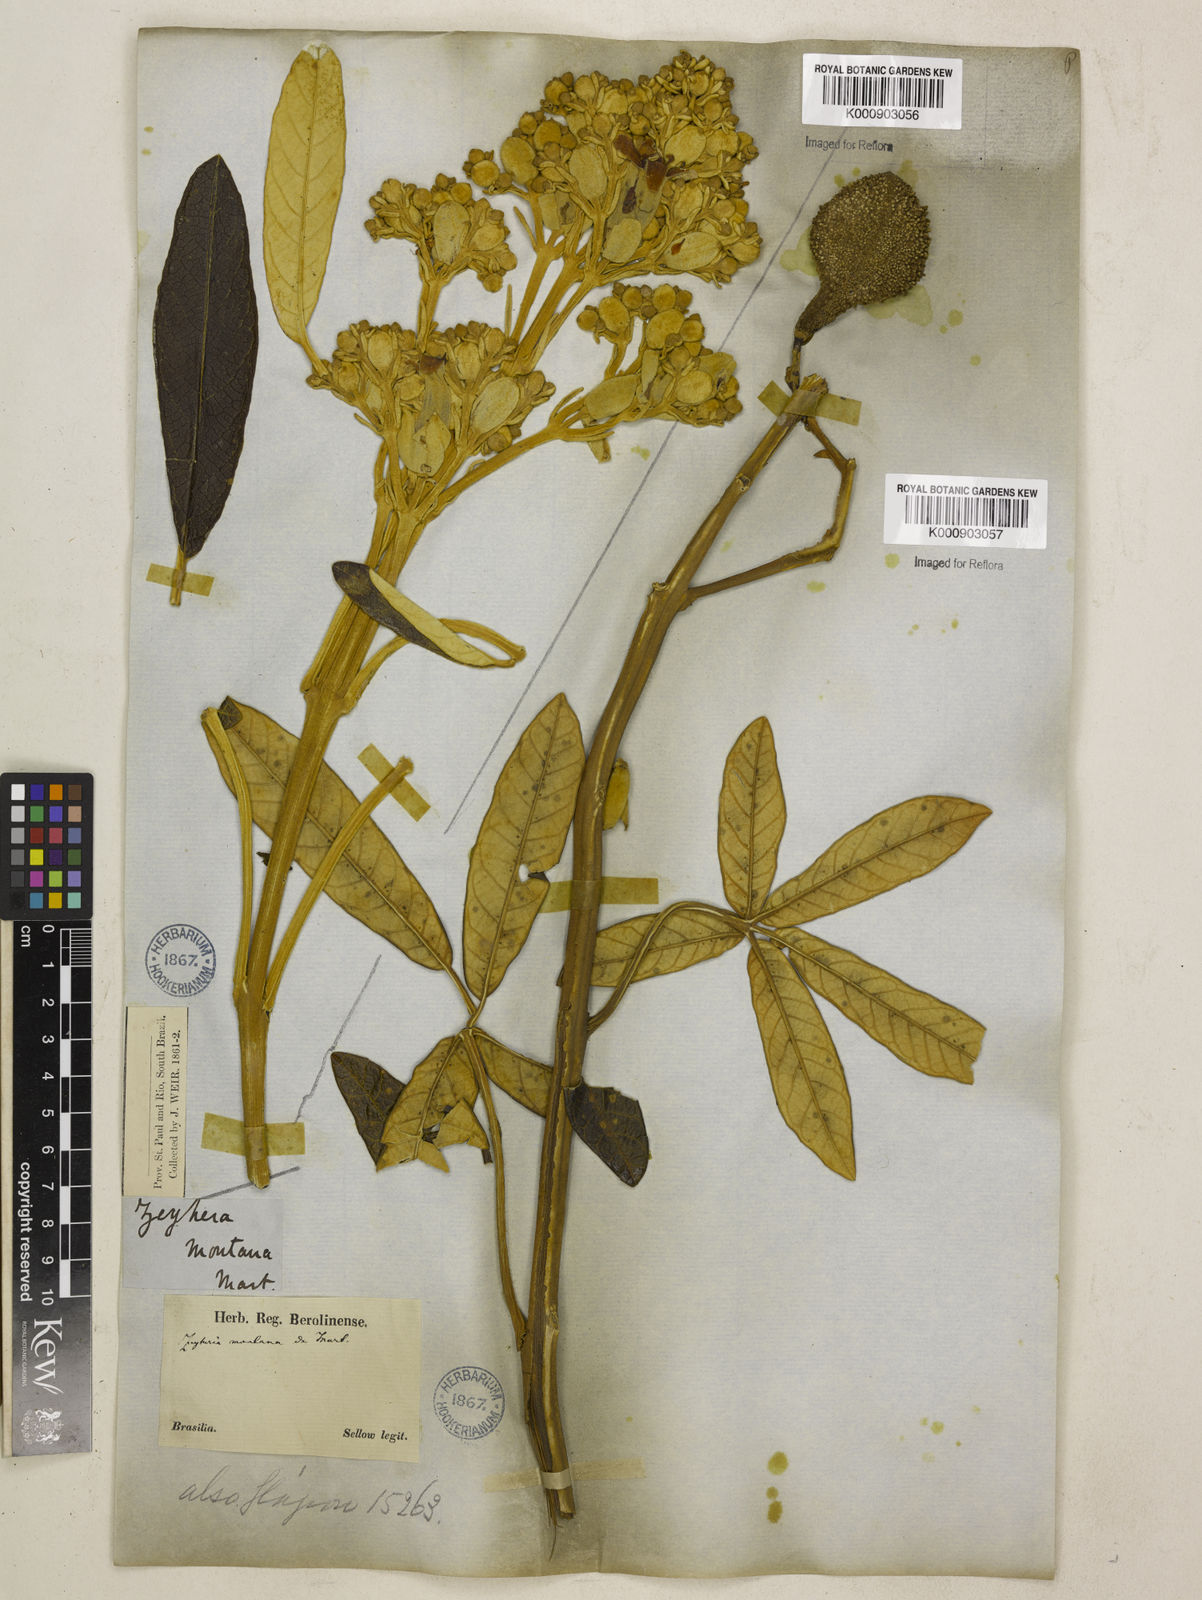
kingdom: Plantae
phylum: Tracheophyta
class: Magnoliopsida
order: Lamiales
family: Bignoniaceae
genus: Zeyheria
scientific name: Zeyheria
